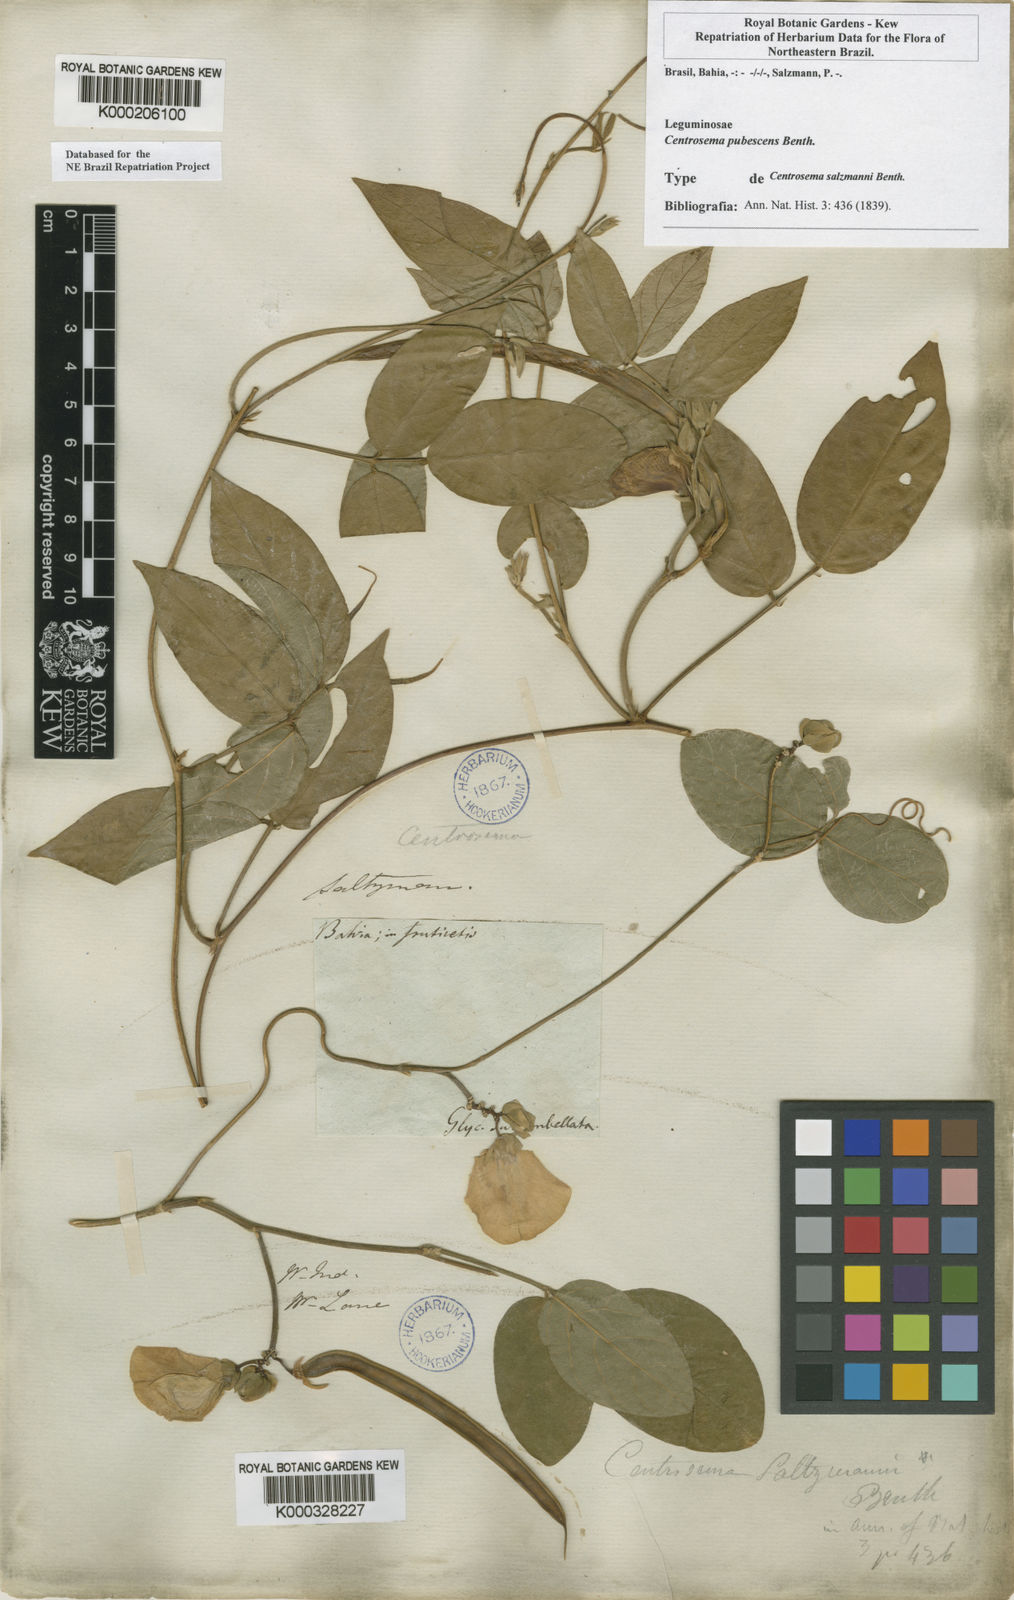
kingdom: Plantae
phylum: Tracheophyta
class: Magnoliopsida
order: Fabales
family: Fabaceae
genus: Centrosema
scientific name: Centrosema pubescens
